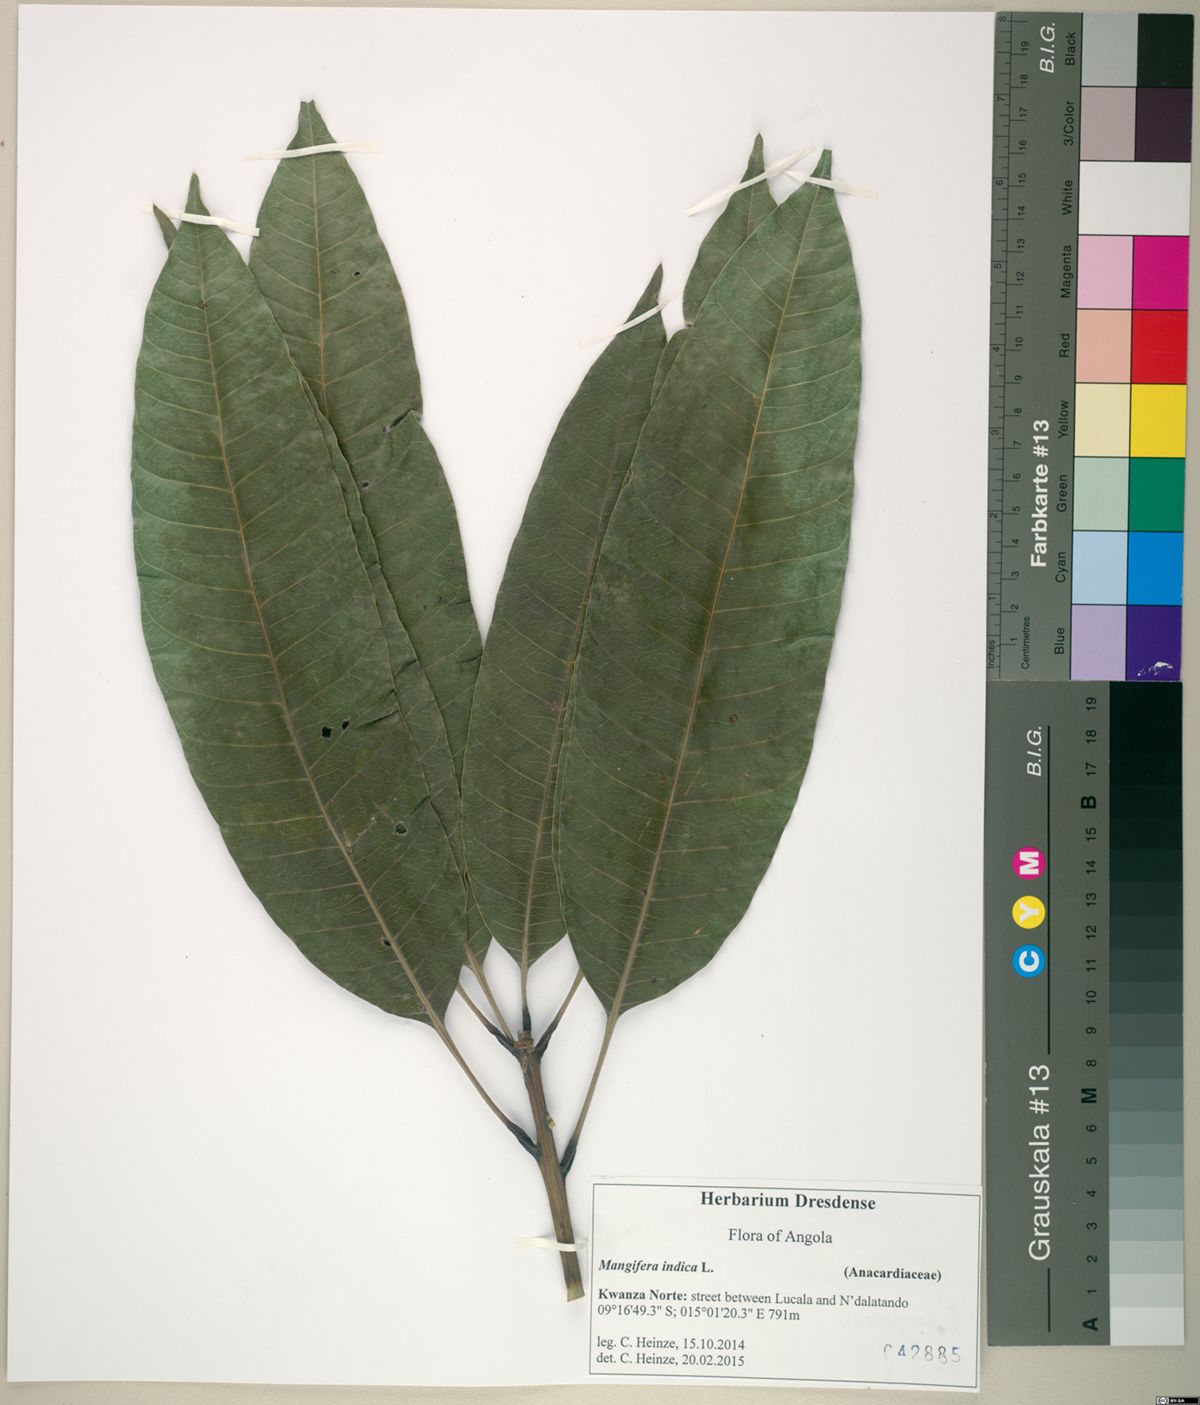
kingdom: Plantae
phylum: Tracheophyta
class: Magnoliopsida
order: Sapindales
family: Anacardiaceae
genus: Mangifera
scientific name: Mangifera indica
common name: Mango
